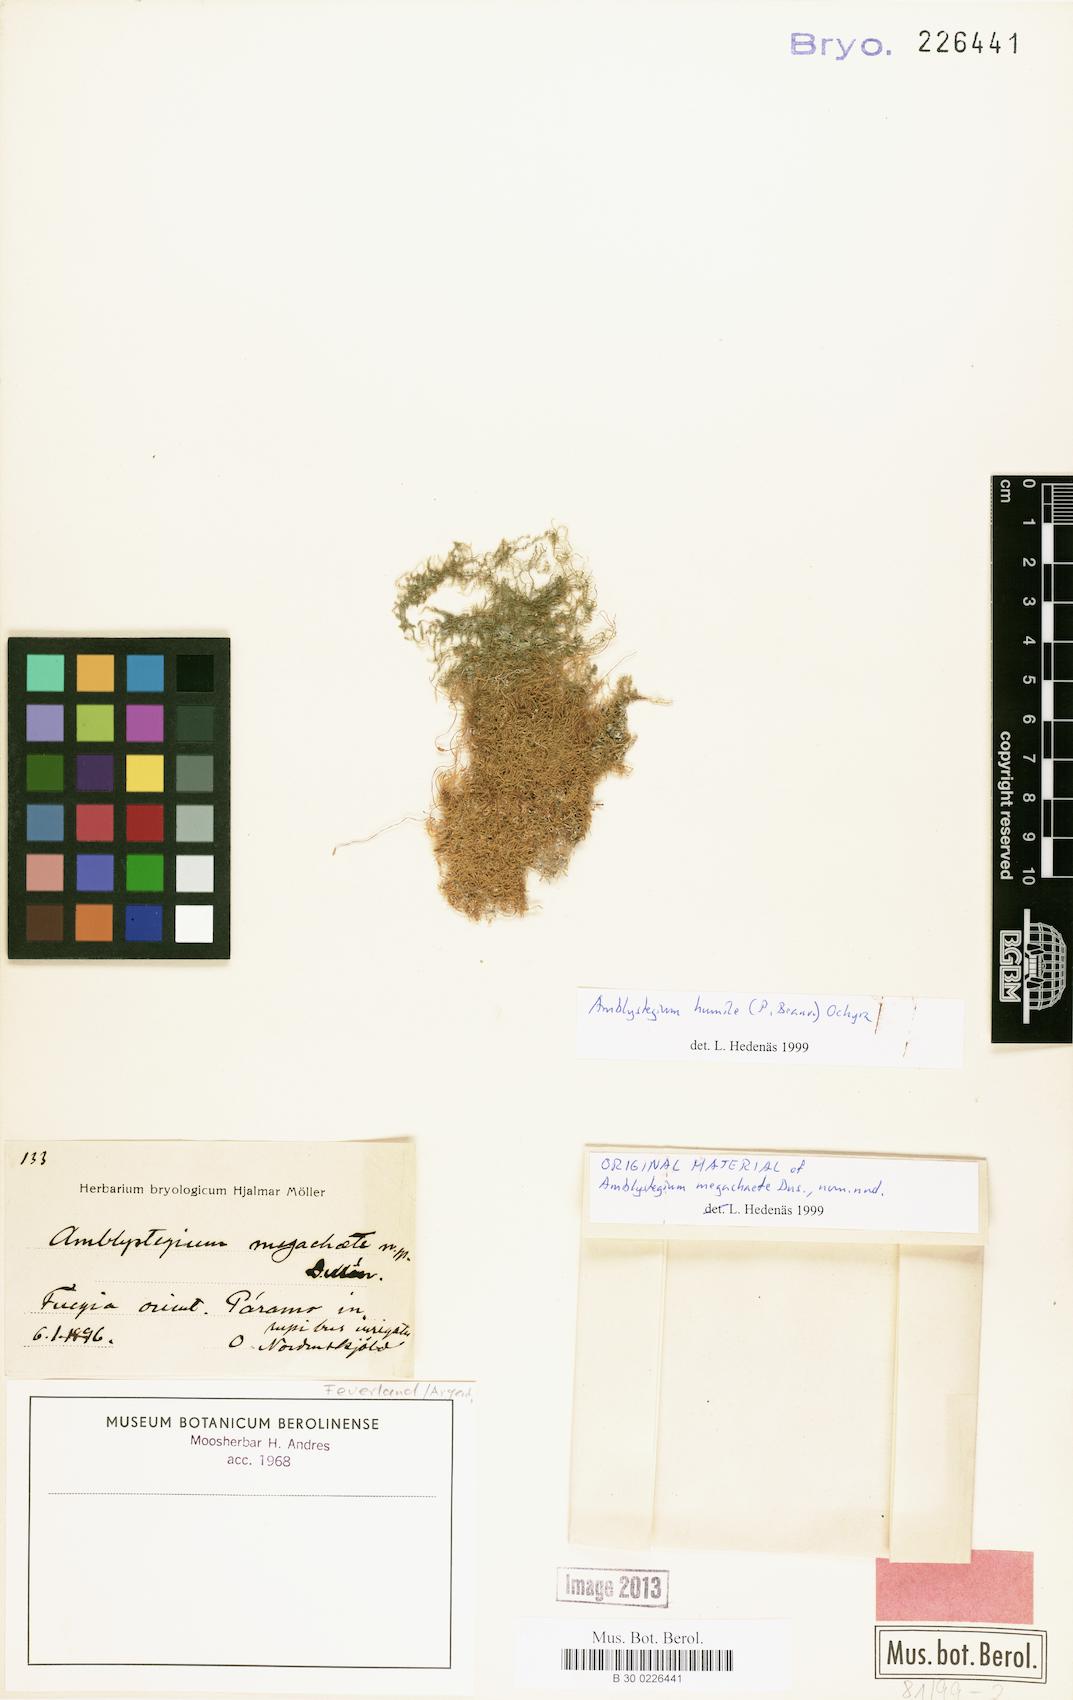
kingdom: Plantae
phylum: Bryophyta
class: Bryopsida
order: Hypnales
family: Amblystegiaceae
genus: Amblystegium
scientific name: Amblystegium
